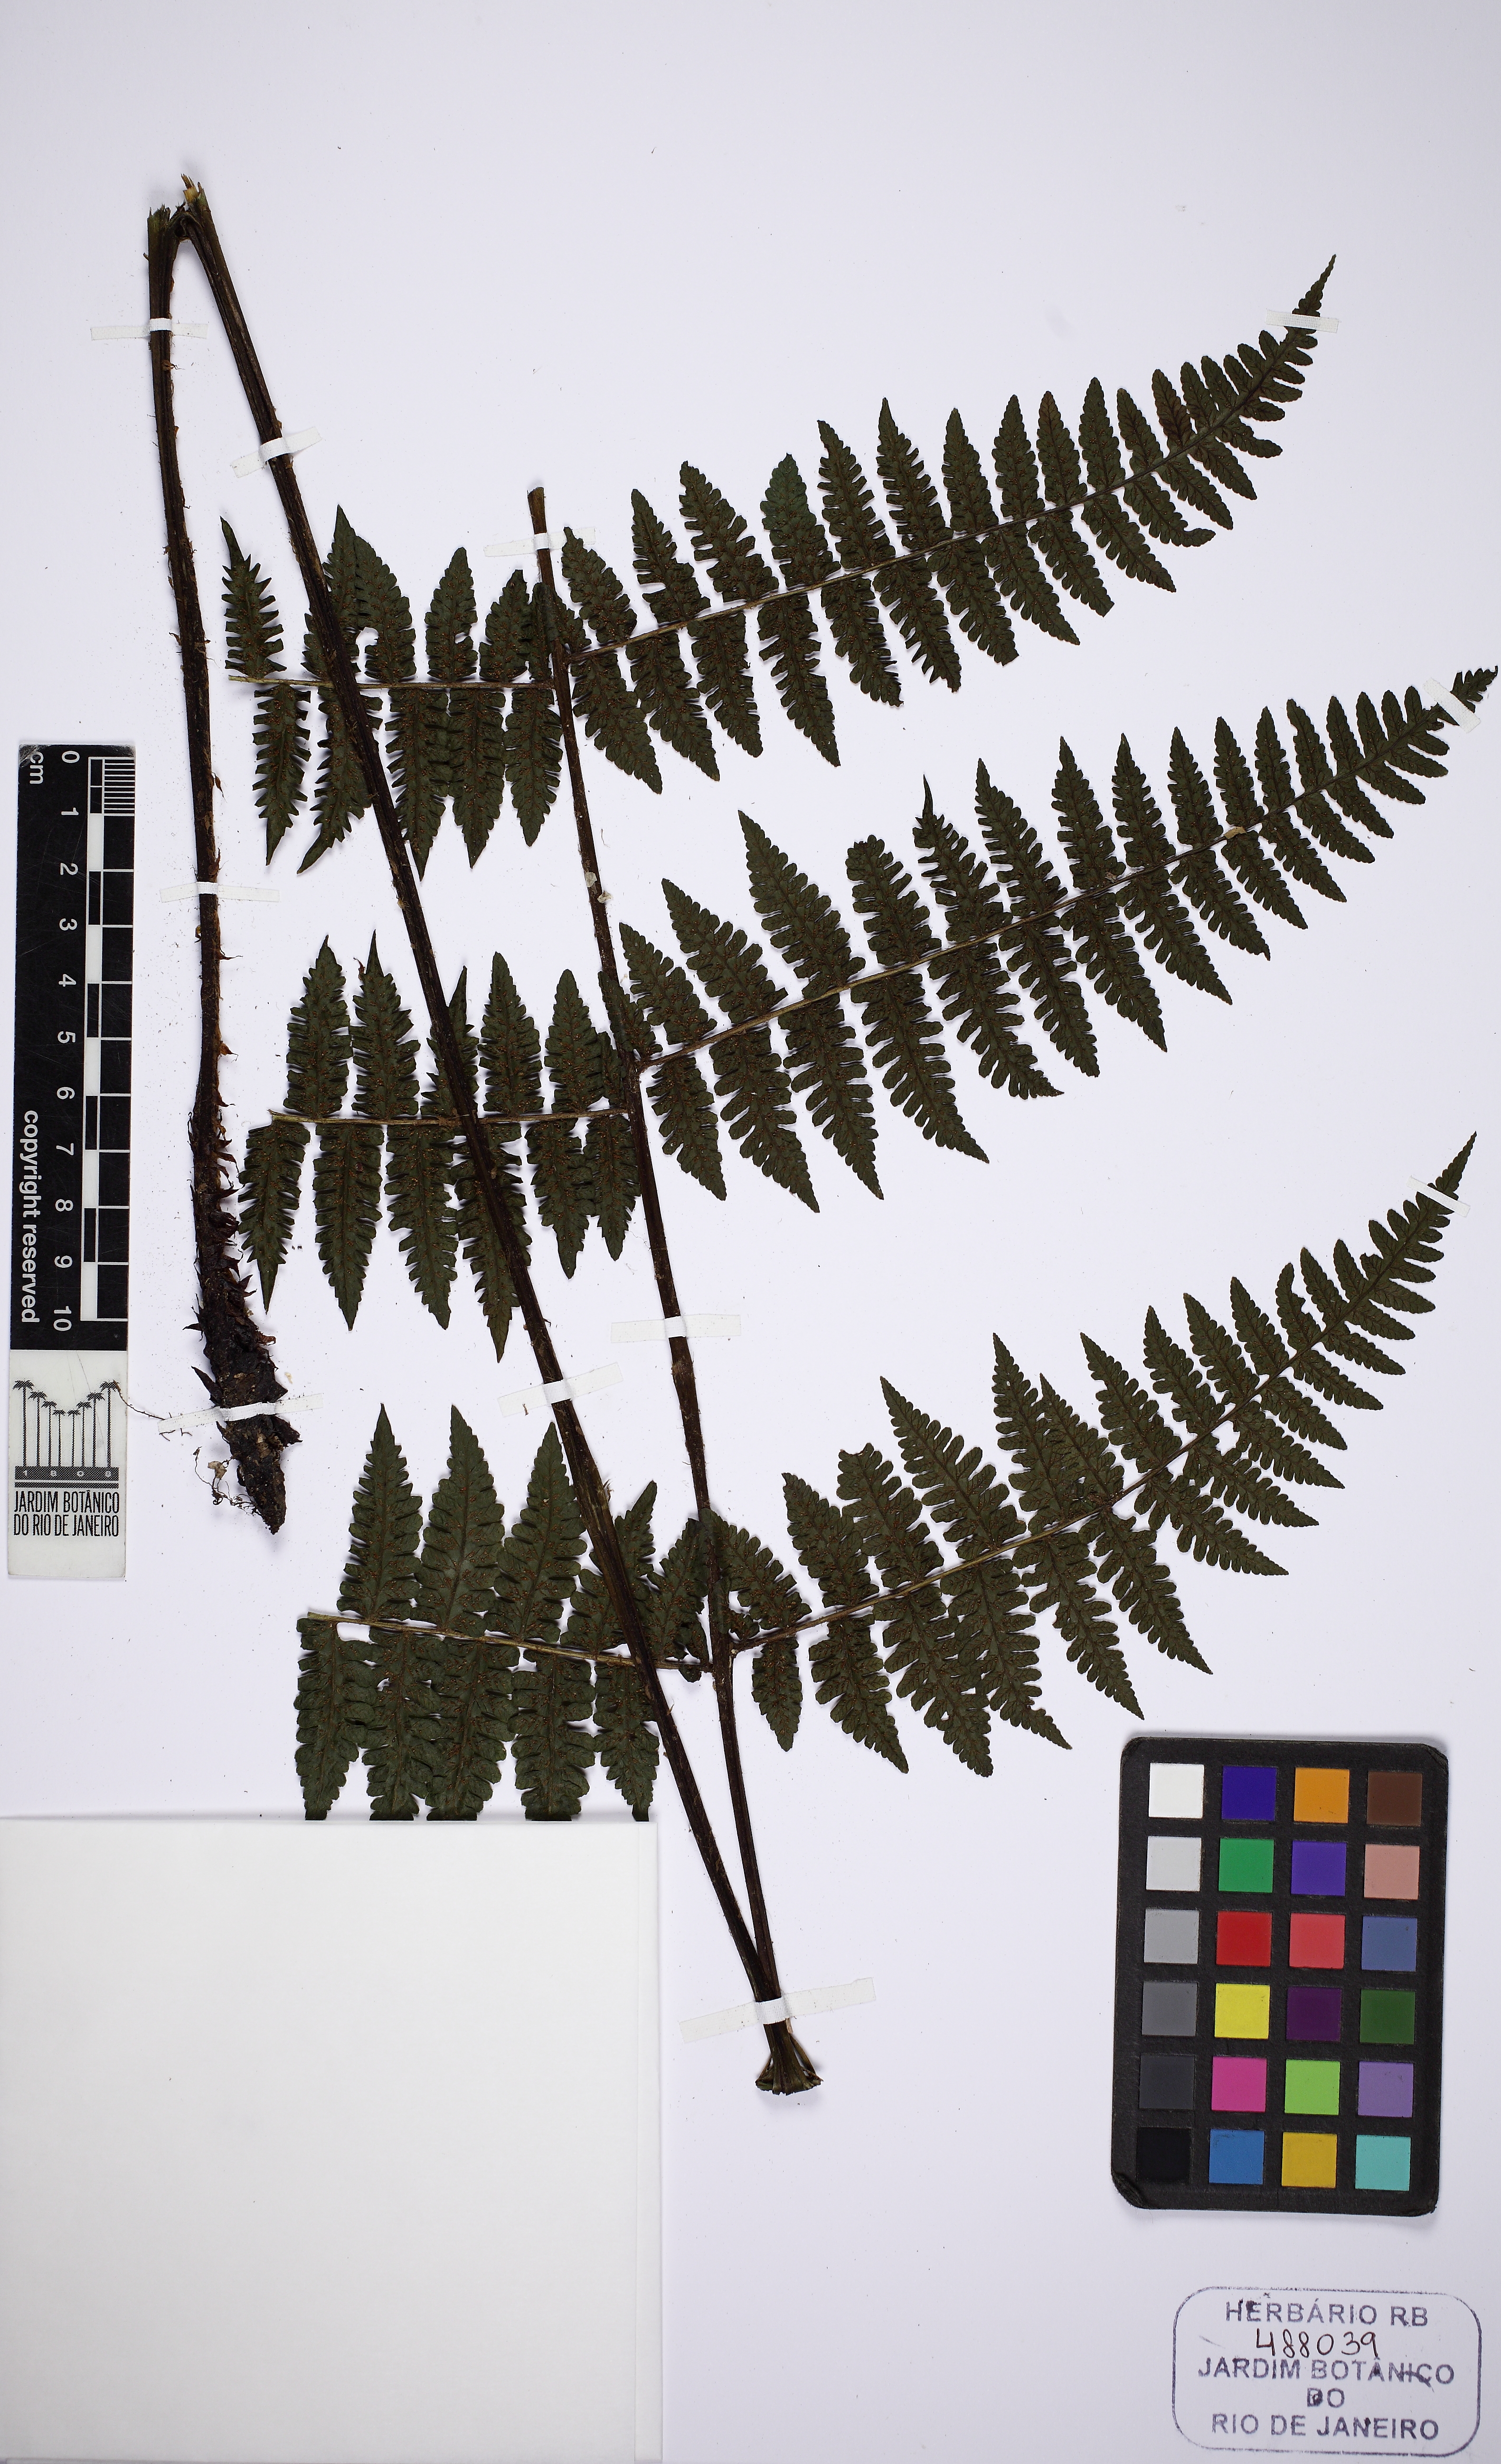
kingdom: Plantae
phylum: Tracheophyta
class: Polypodiopsida
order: Polypodiales
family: Athyriaceae
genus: Diplazium
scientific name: Diplazium leptocarpon
